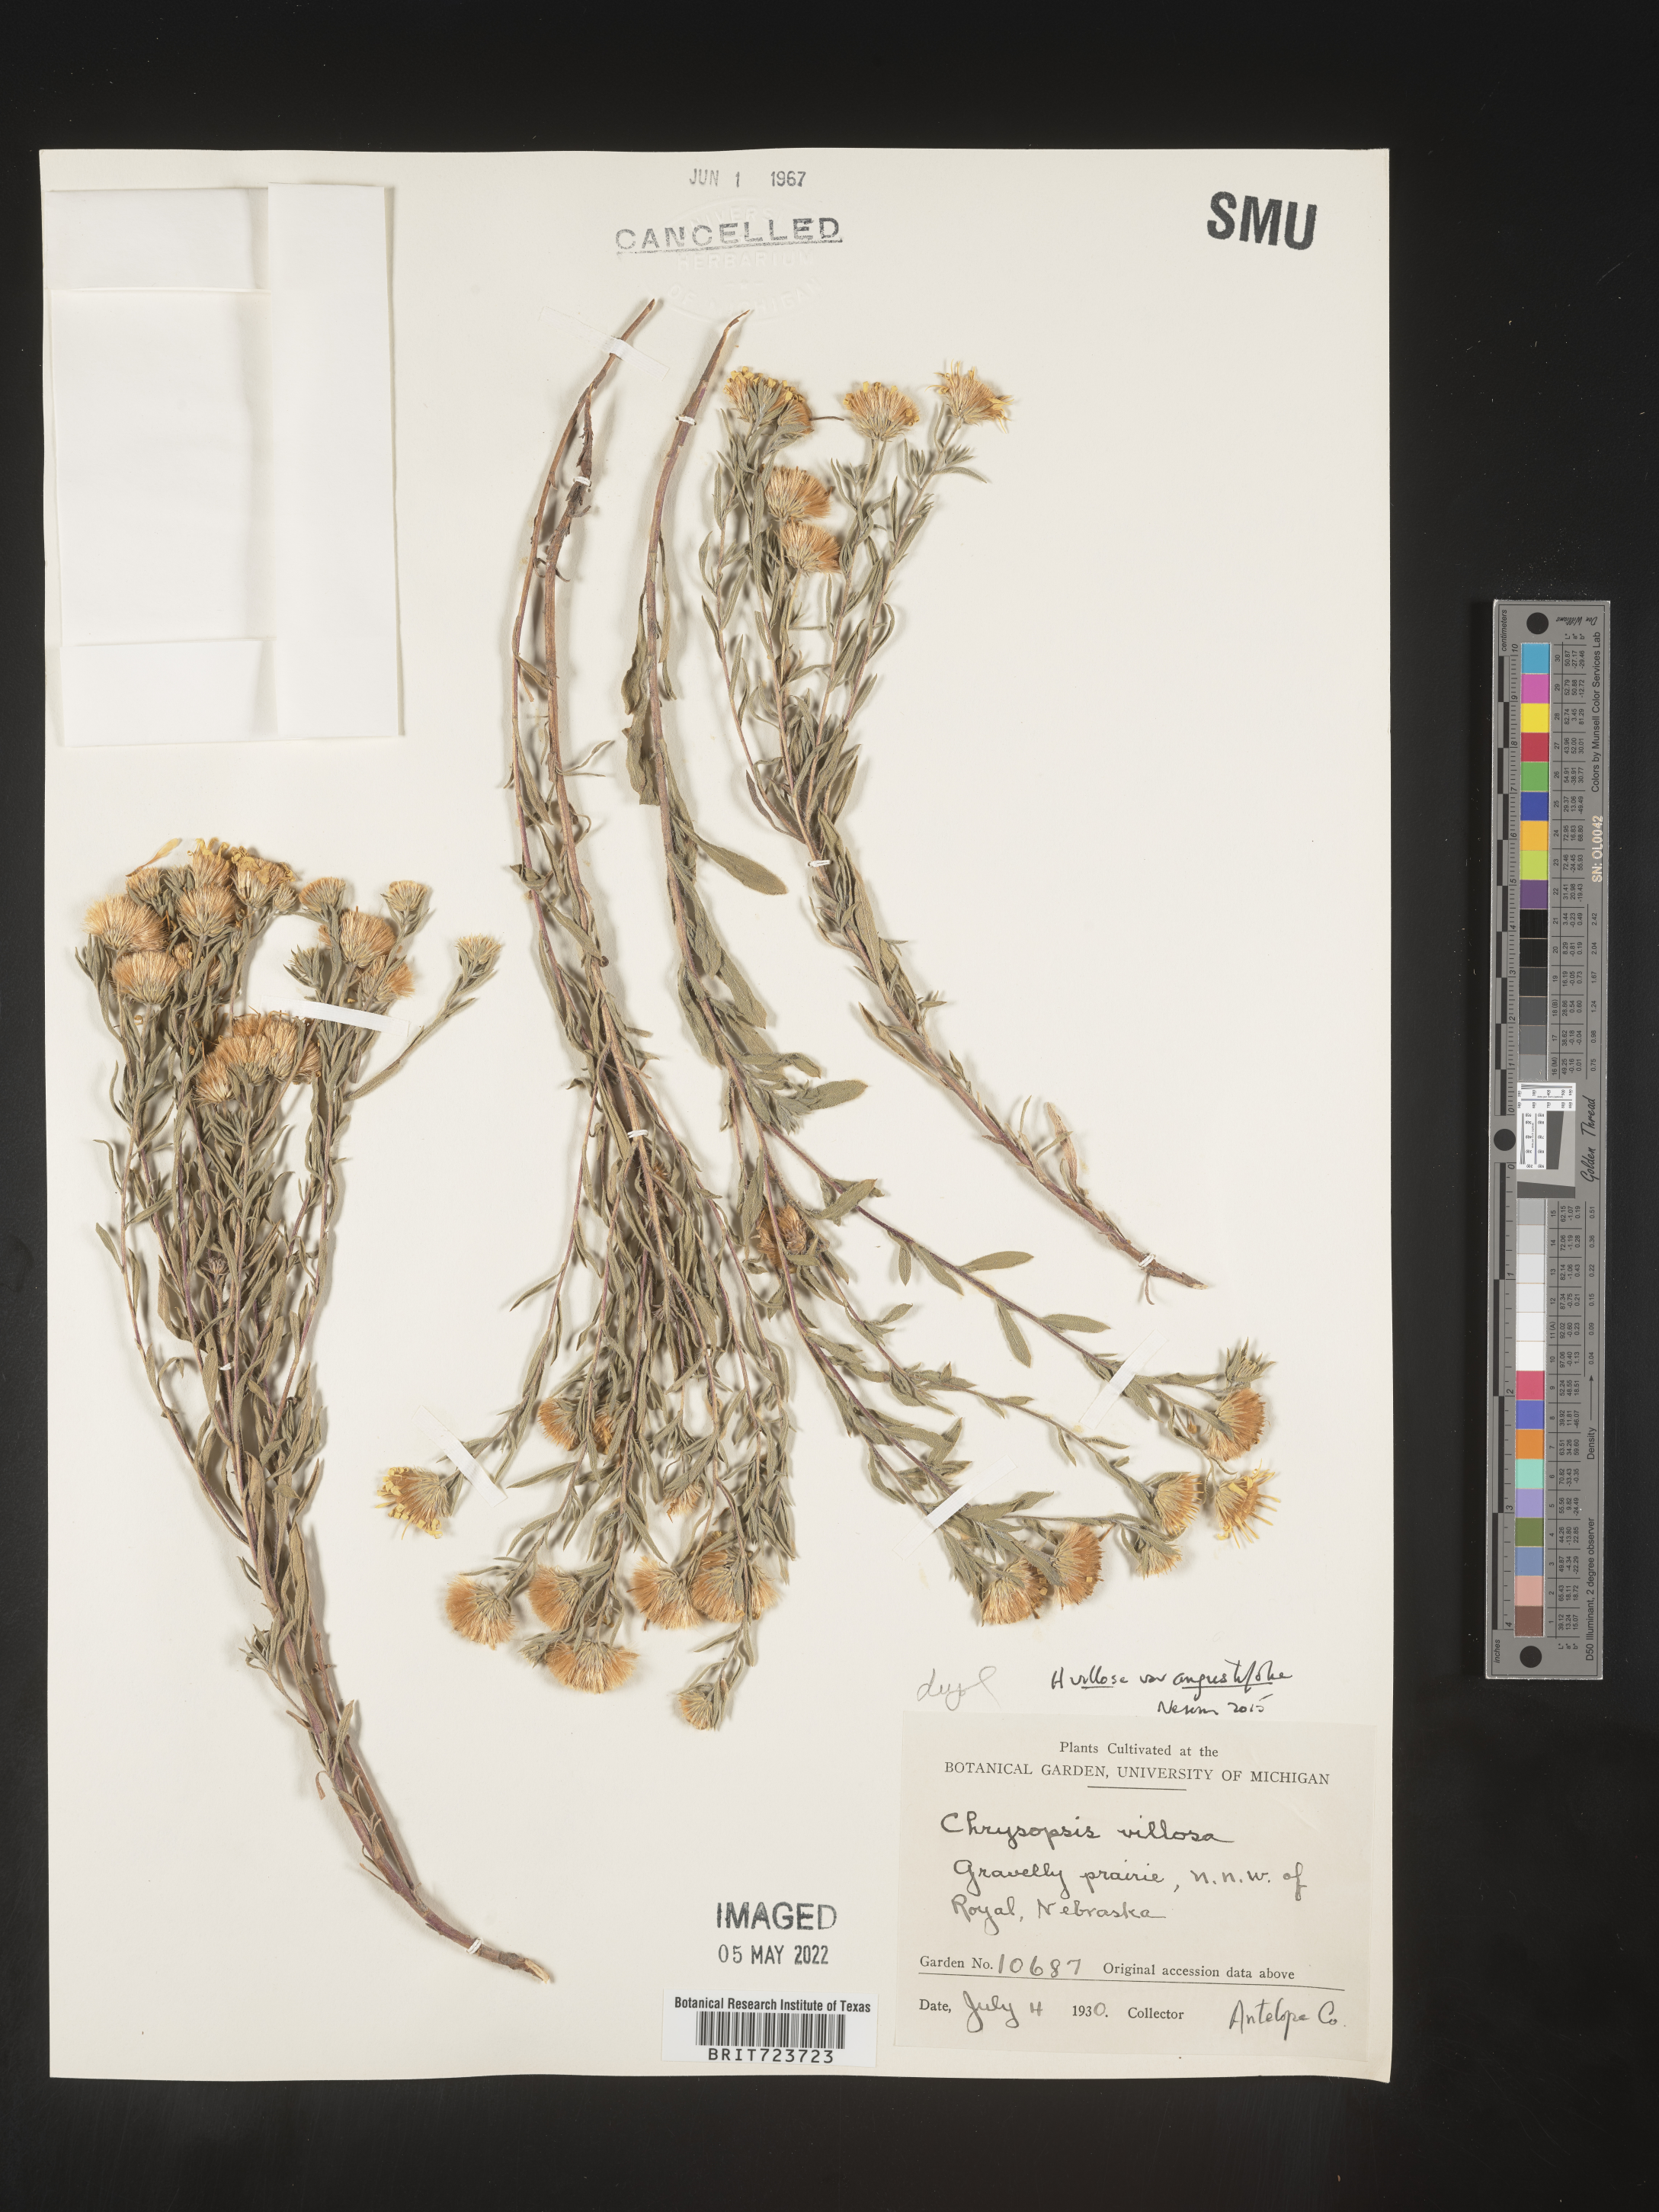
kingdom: Plantae
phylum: Tracheophyta
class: Magnoliopsida
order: Asterales
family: Asteraceae
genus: Heterotheca
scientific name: Heterotheca angustifolia
